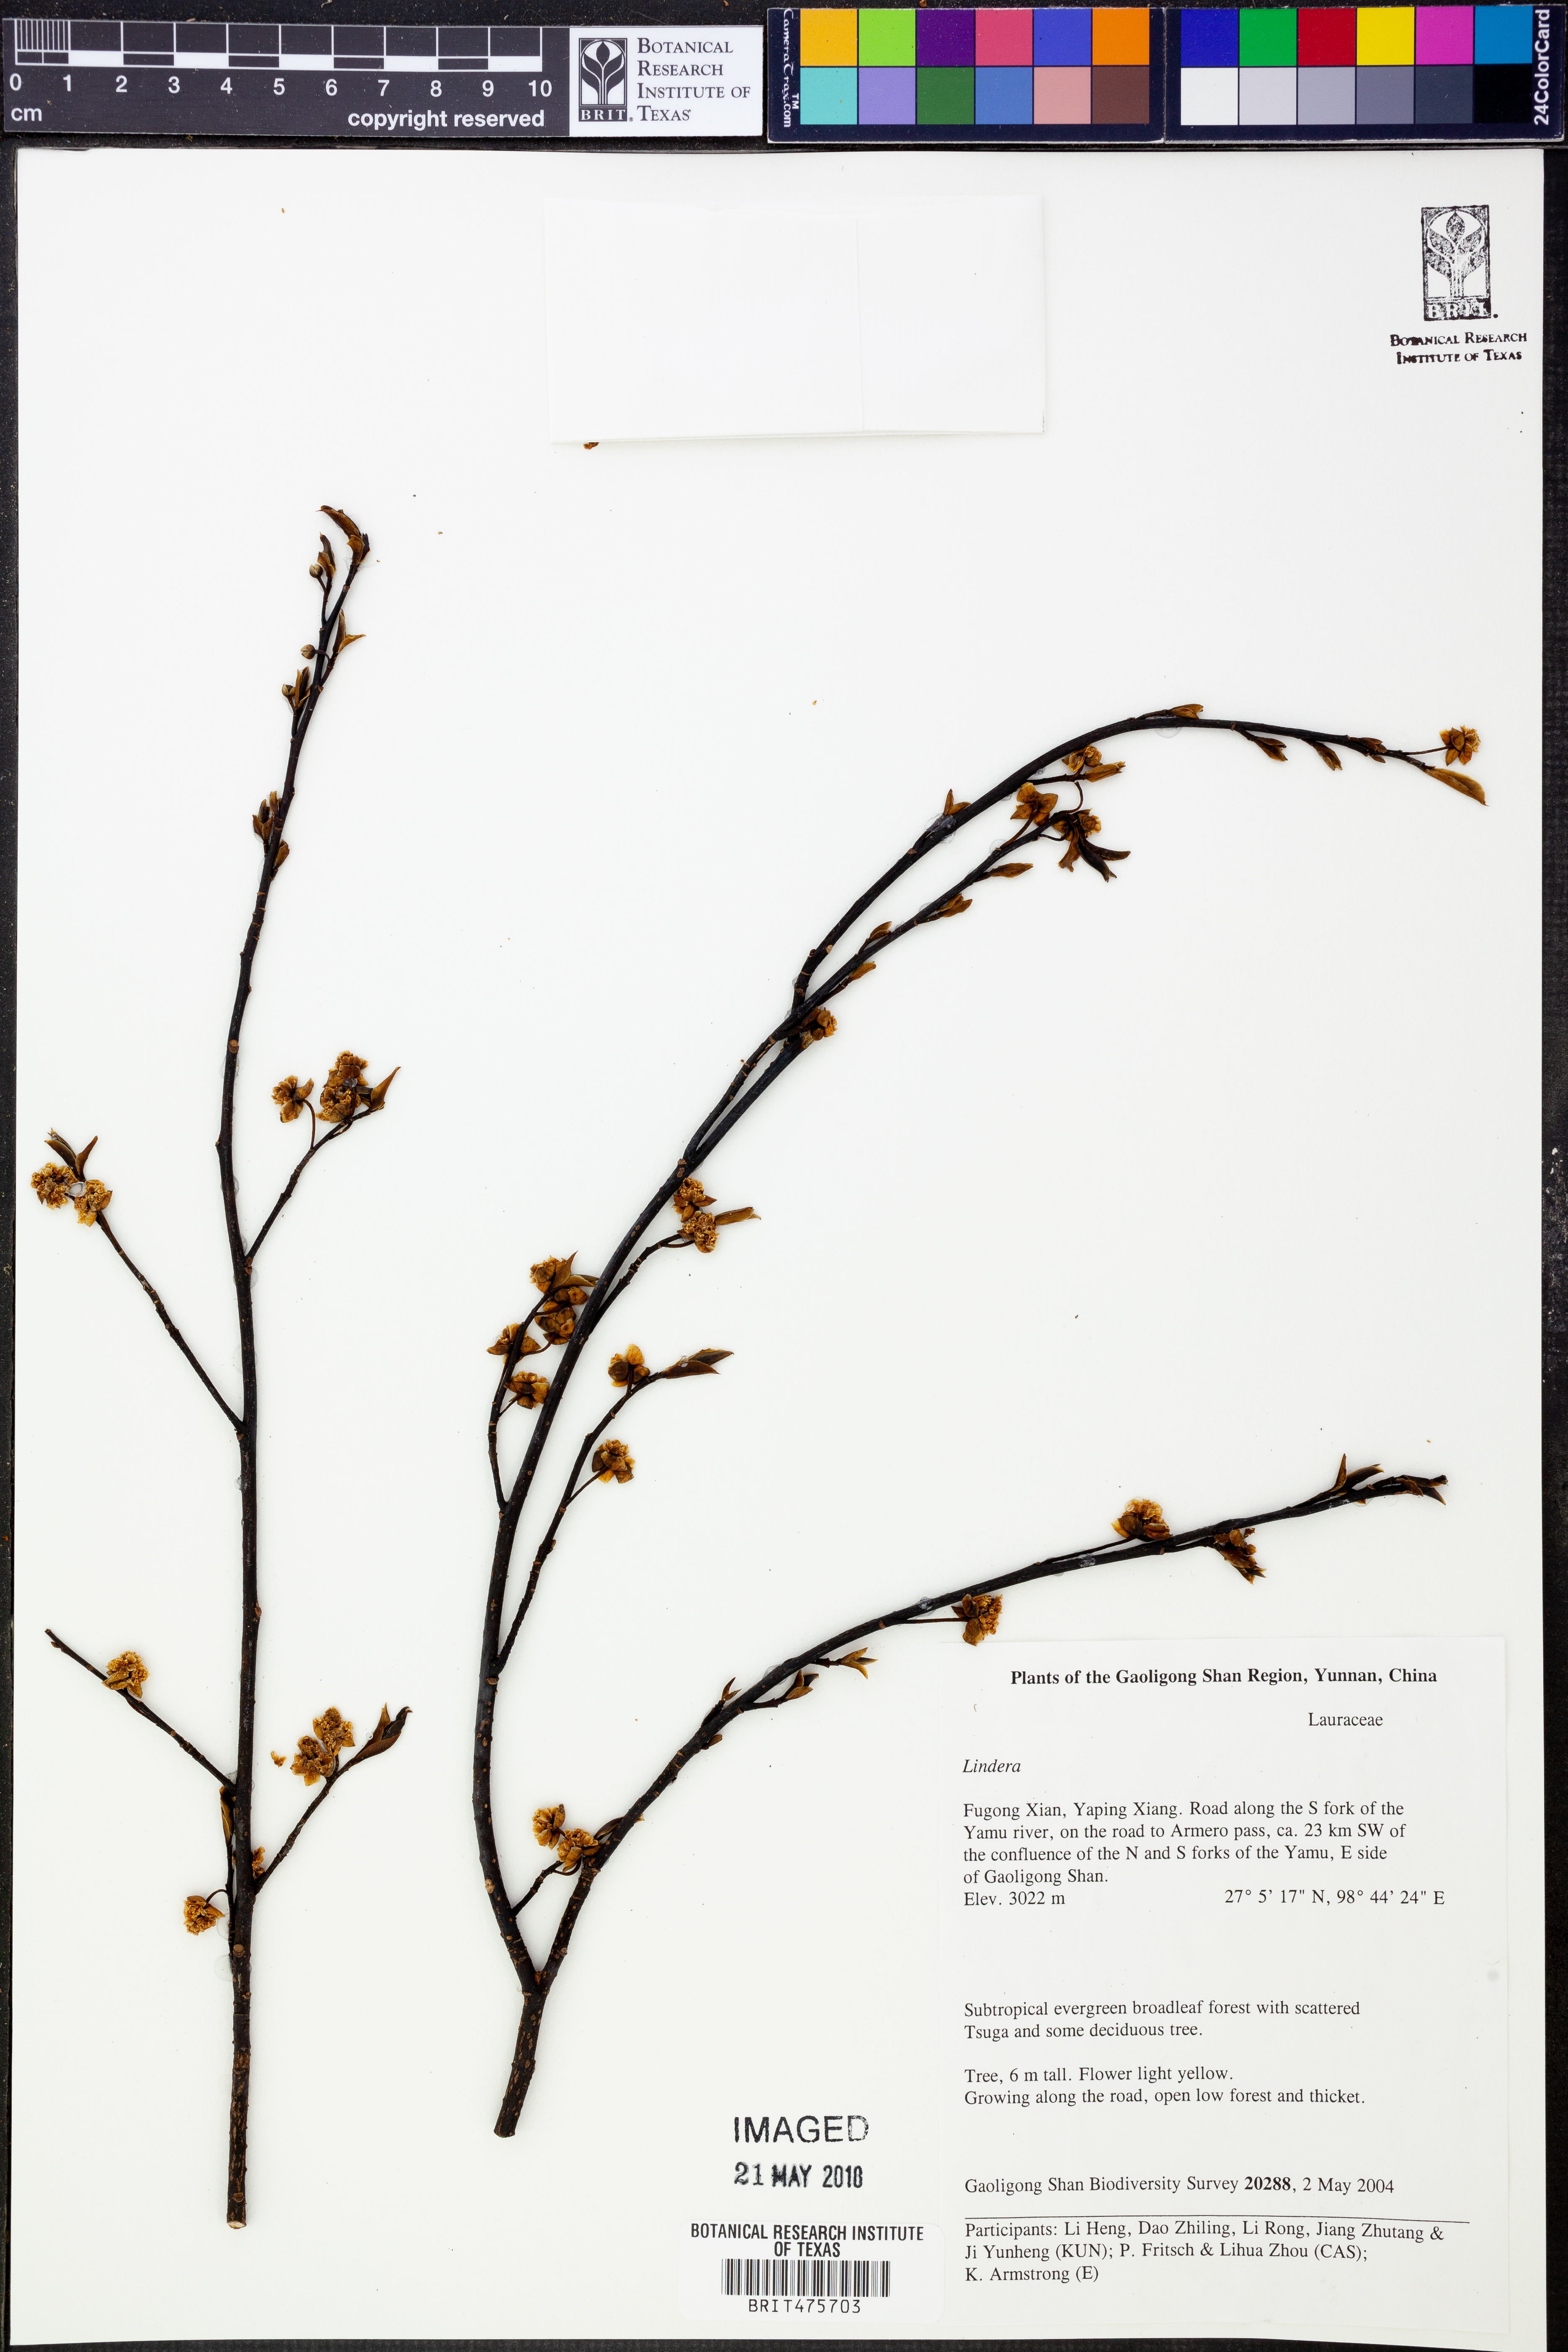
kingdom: Plantae
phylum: Tracheophyta
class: Magnoliopsida
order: Laurales
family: Lauraceae
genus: Litsea
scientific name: Litsea kingii
